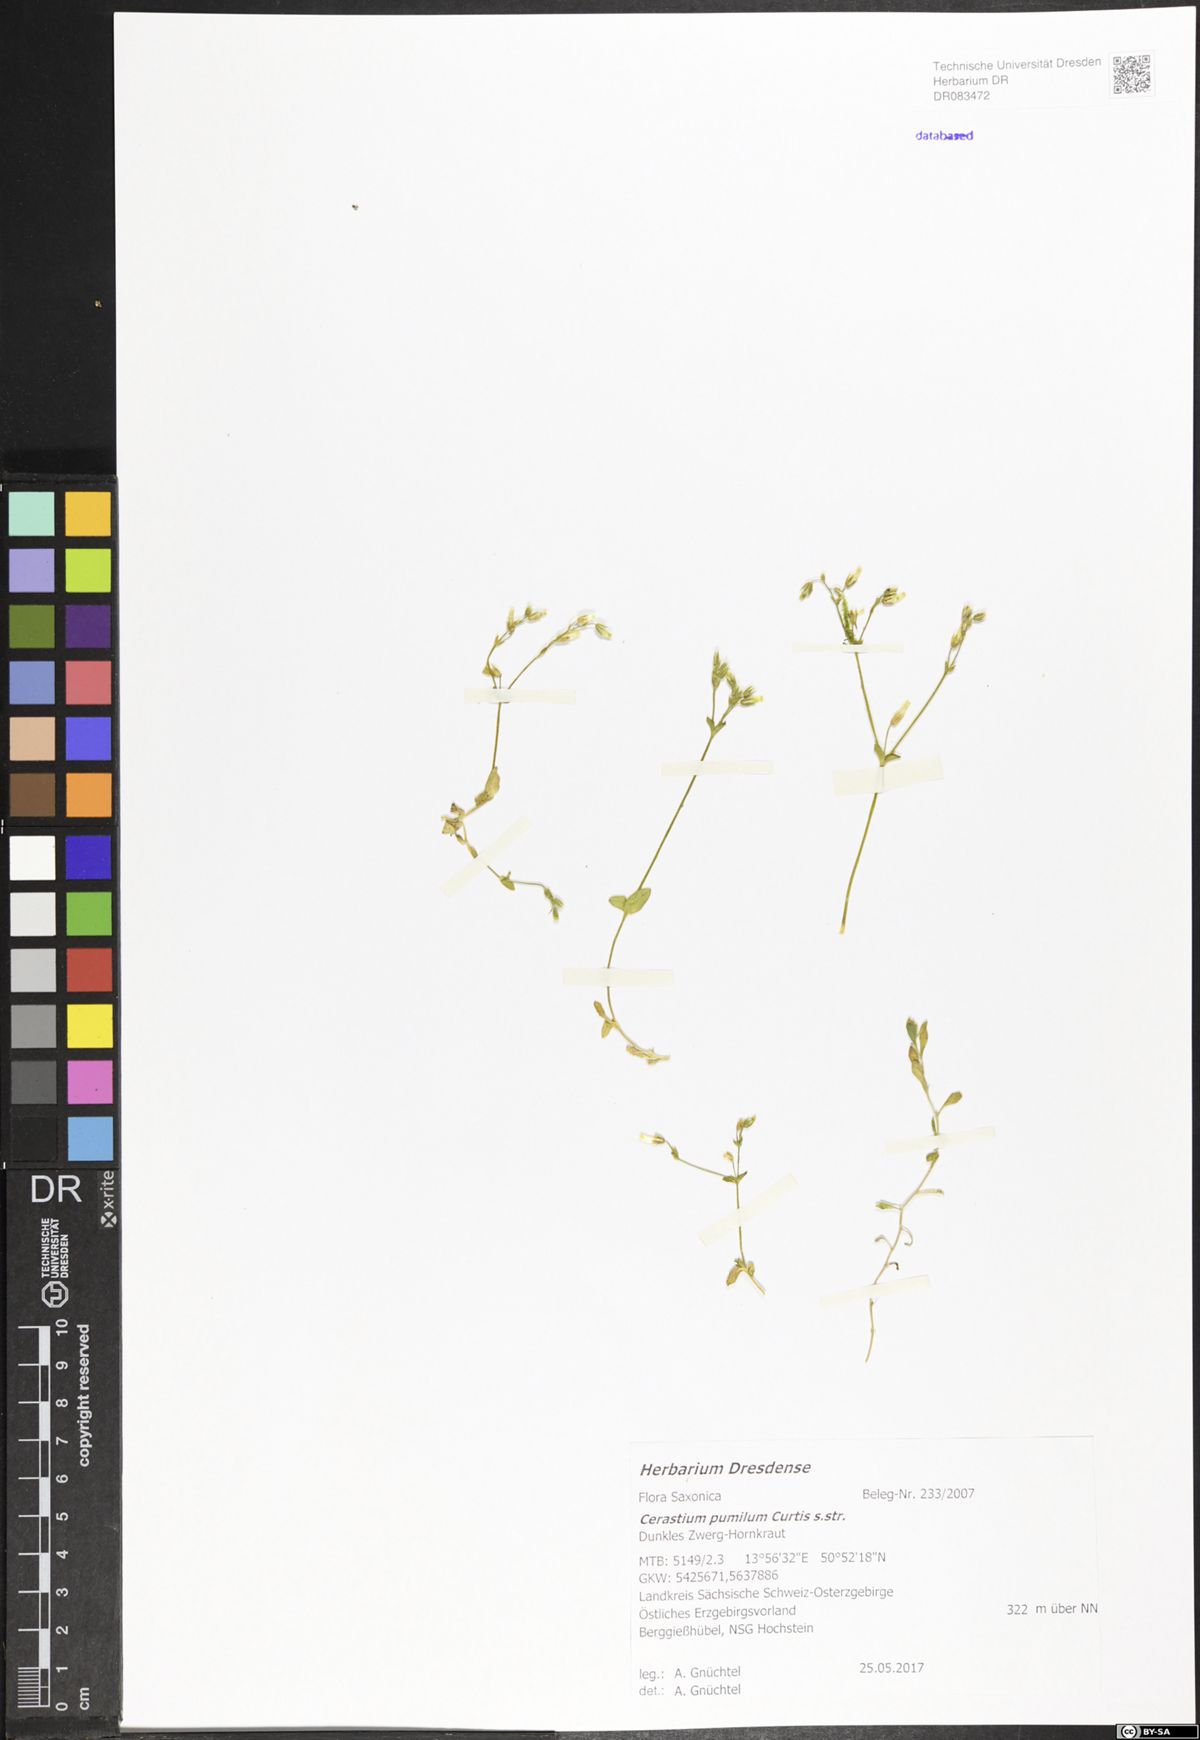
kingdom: Plantae
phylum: Tracheophyta
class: Magnoliopsida
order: Caryophyllales
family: Caryophyllaceae
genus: Cerastium
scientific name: Cerastium pumilum
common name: Dwarf mouse-ear
